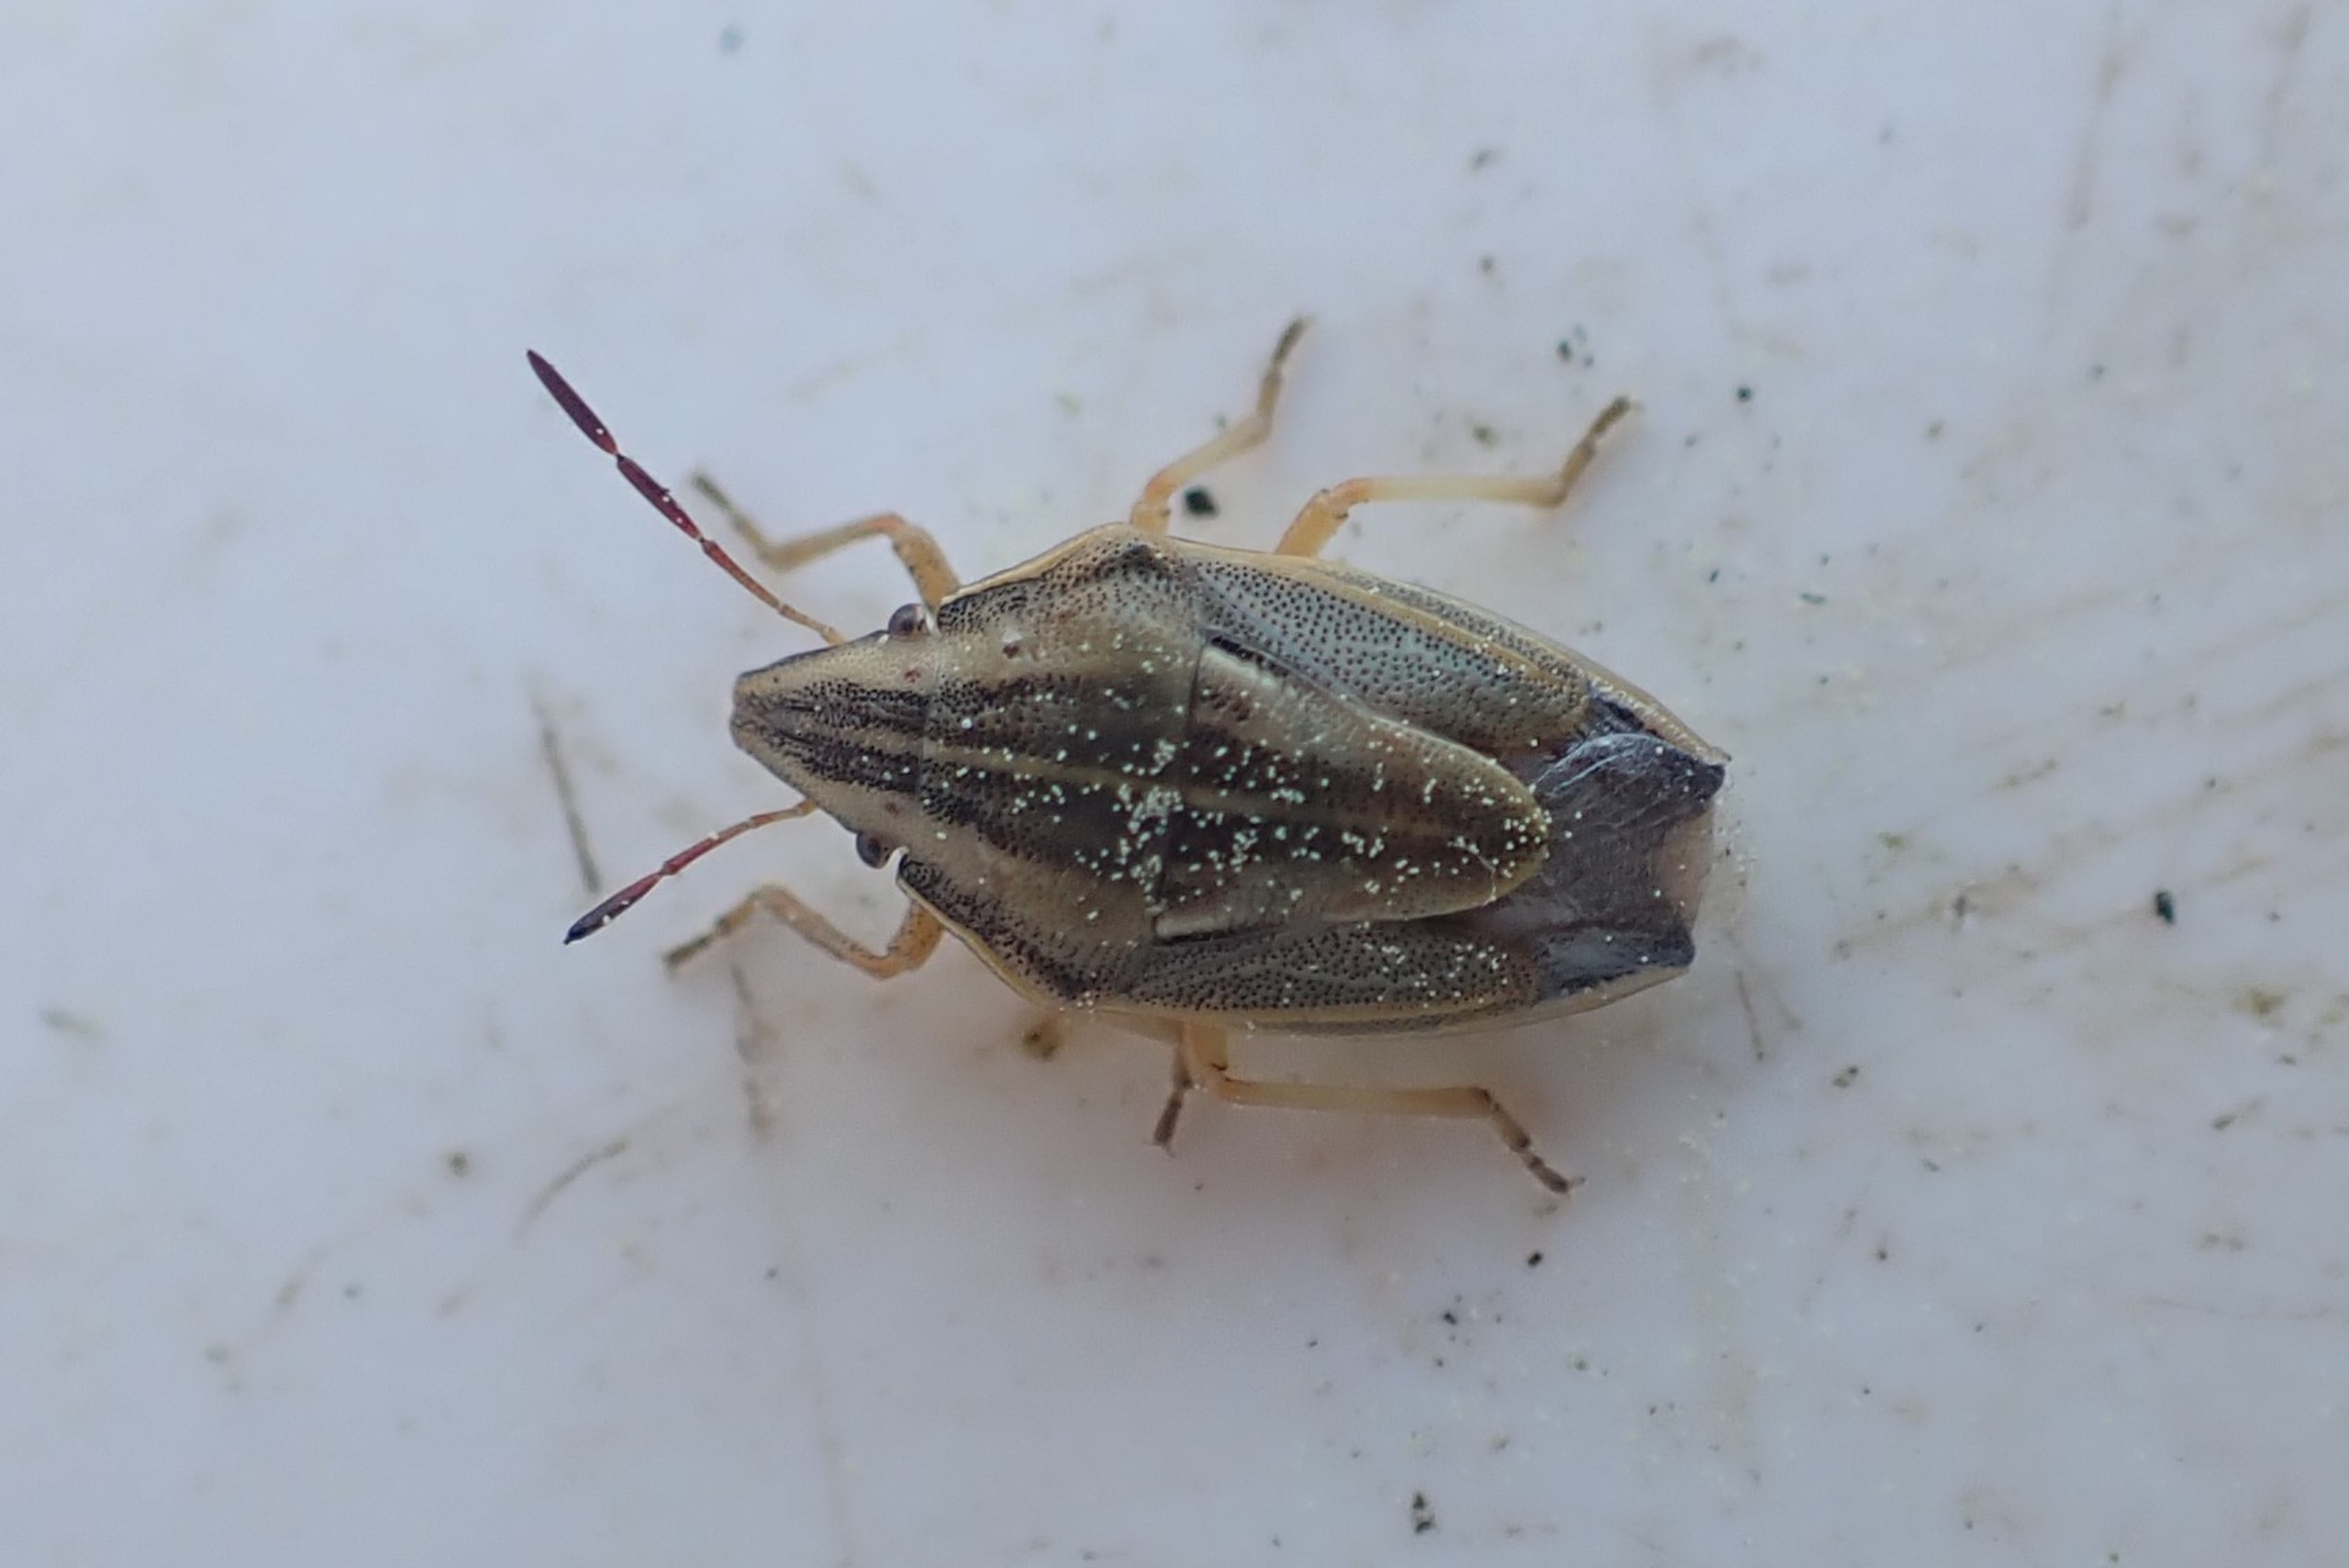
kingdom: Animalia
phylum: Arthropoda
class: Insecta
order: Hemiptera
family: Pentatomidae
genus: Aelia
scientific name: Aelia acuminata
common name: Almindelig bispetæge
